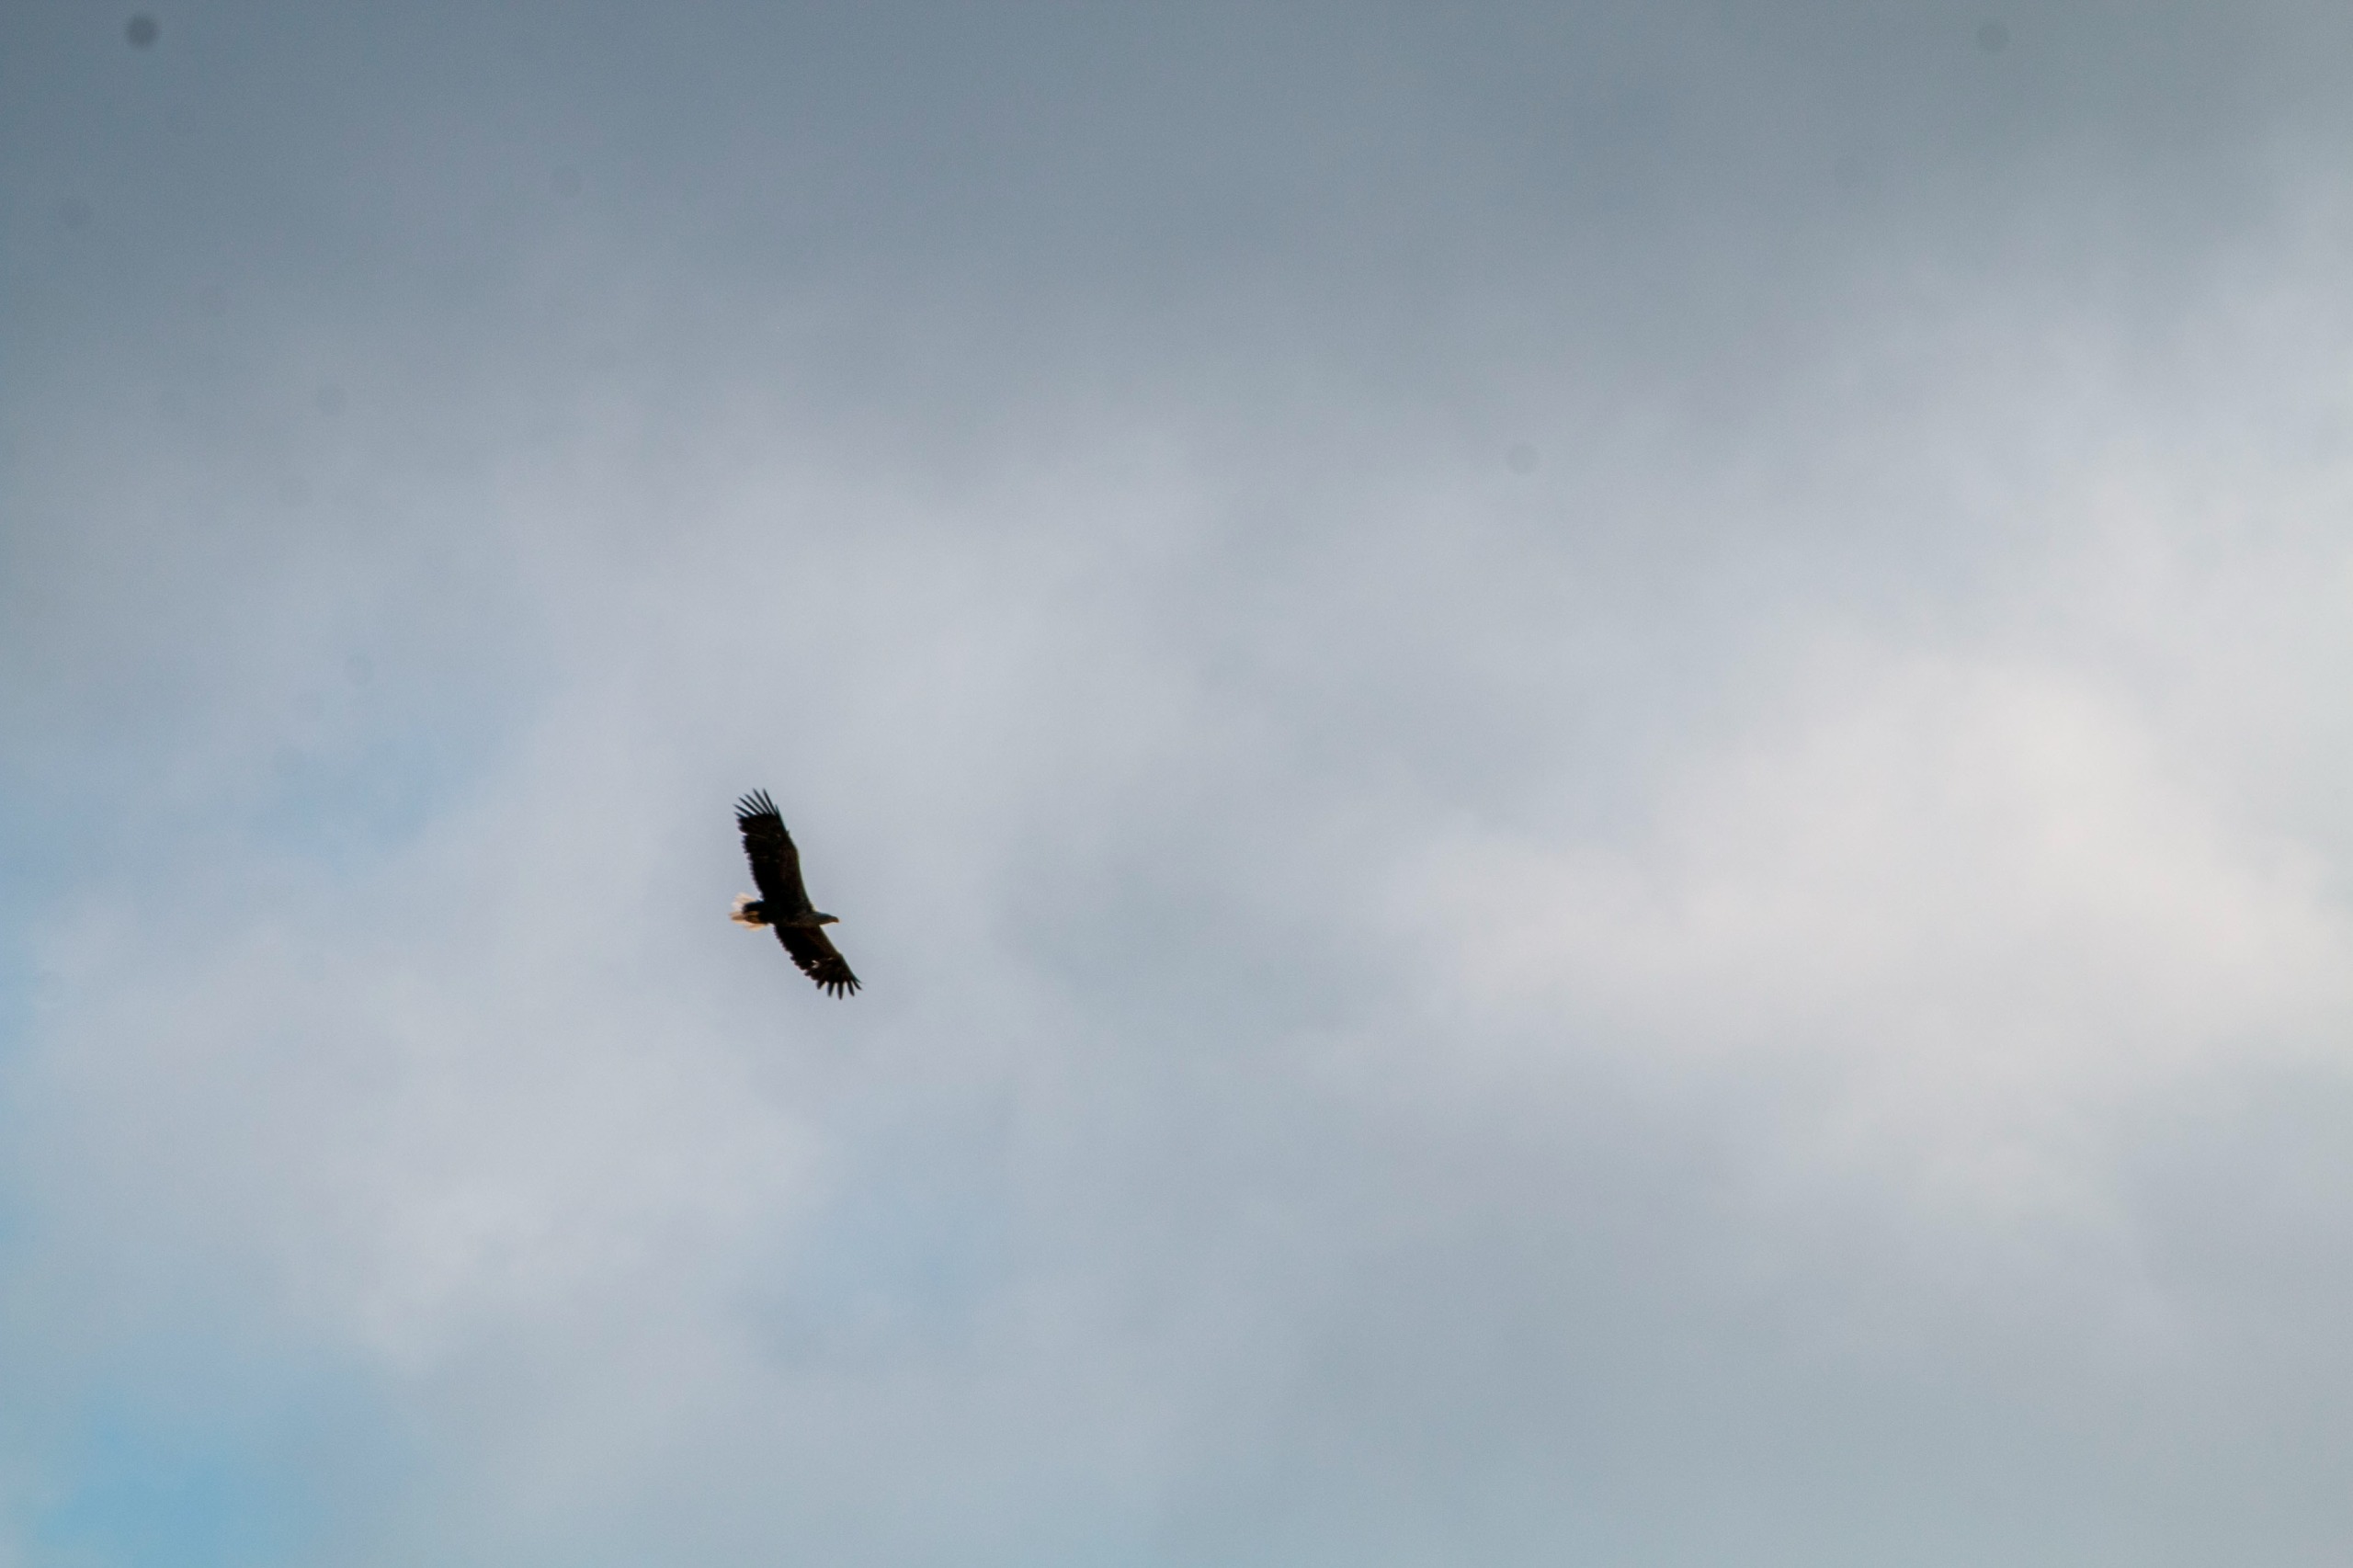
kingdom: Animalia
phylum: Chordata
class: Aves
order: Accipitriformes
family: Accipitridae
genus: Haliaeetus
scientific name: Haliaeetus albicilla
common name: Havørn
